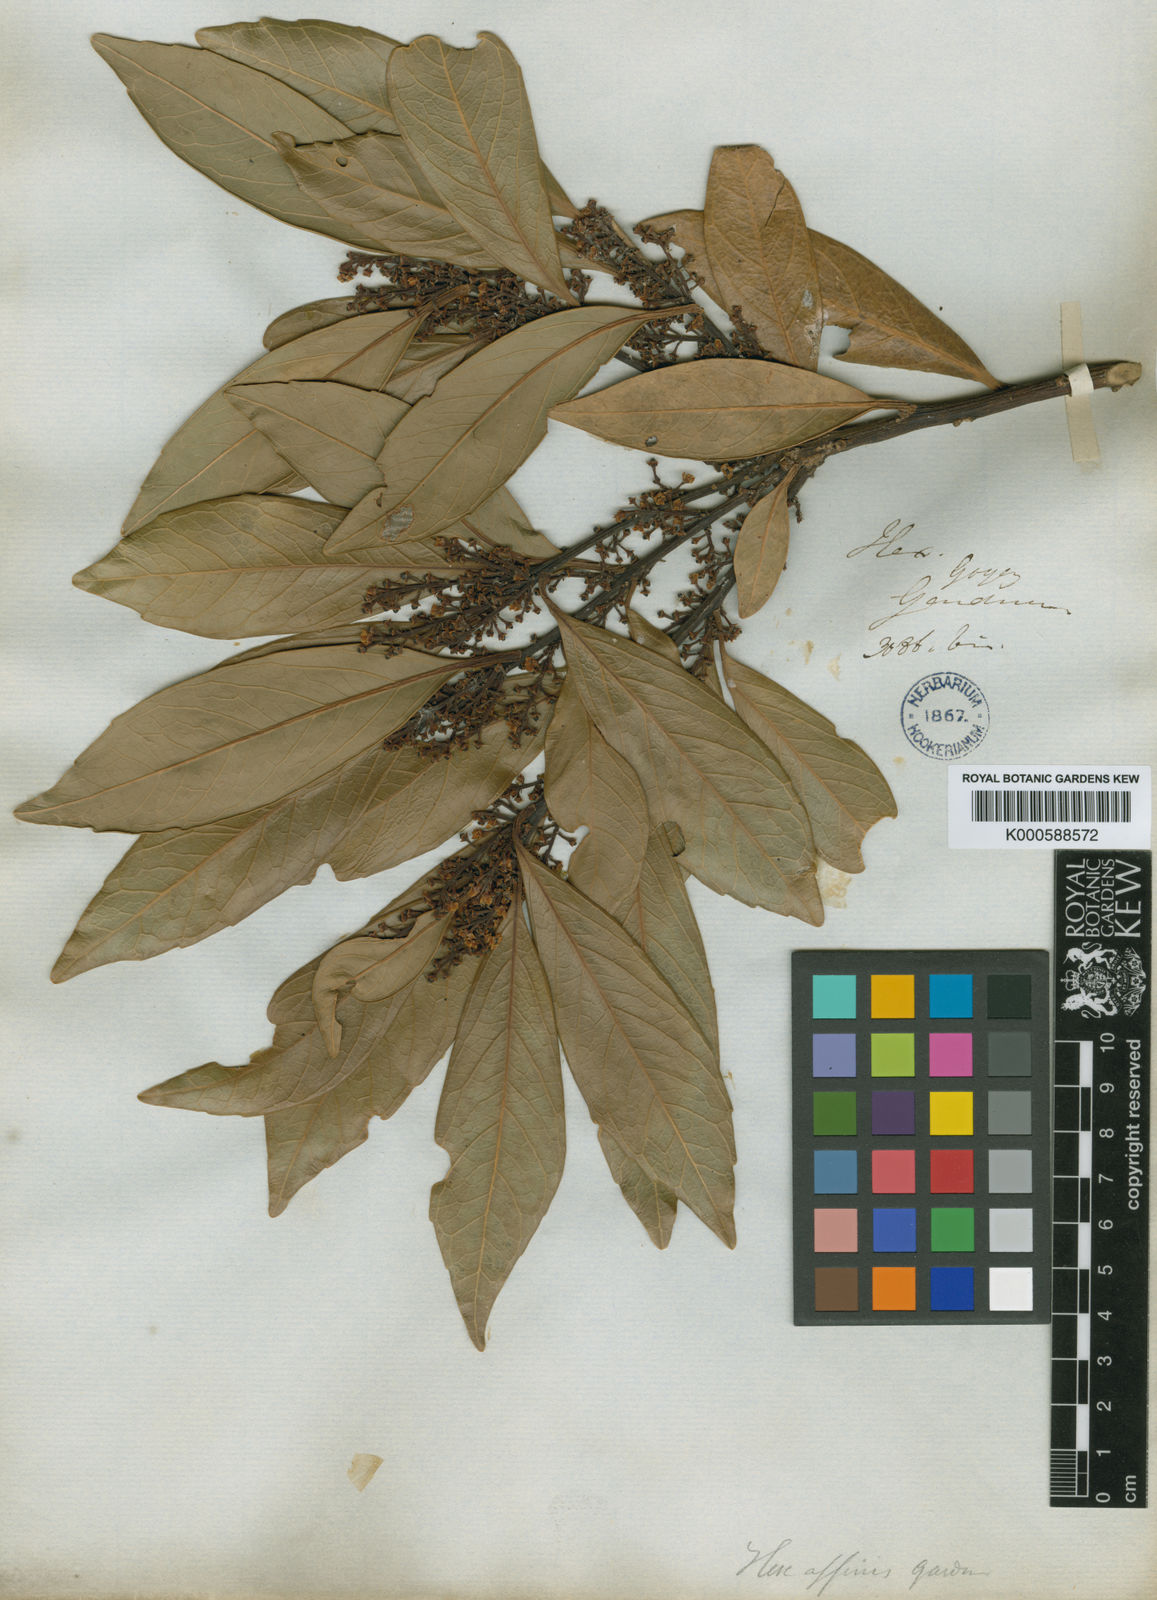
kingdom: Plantae
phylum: Tracheophyta
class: Magnoliopsida
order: Aquifoliales
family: Aquifoliaceae
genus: Ilex
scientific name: Ilex affinis
